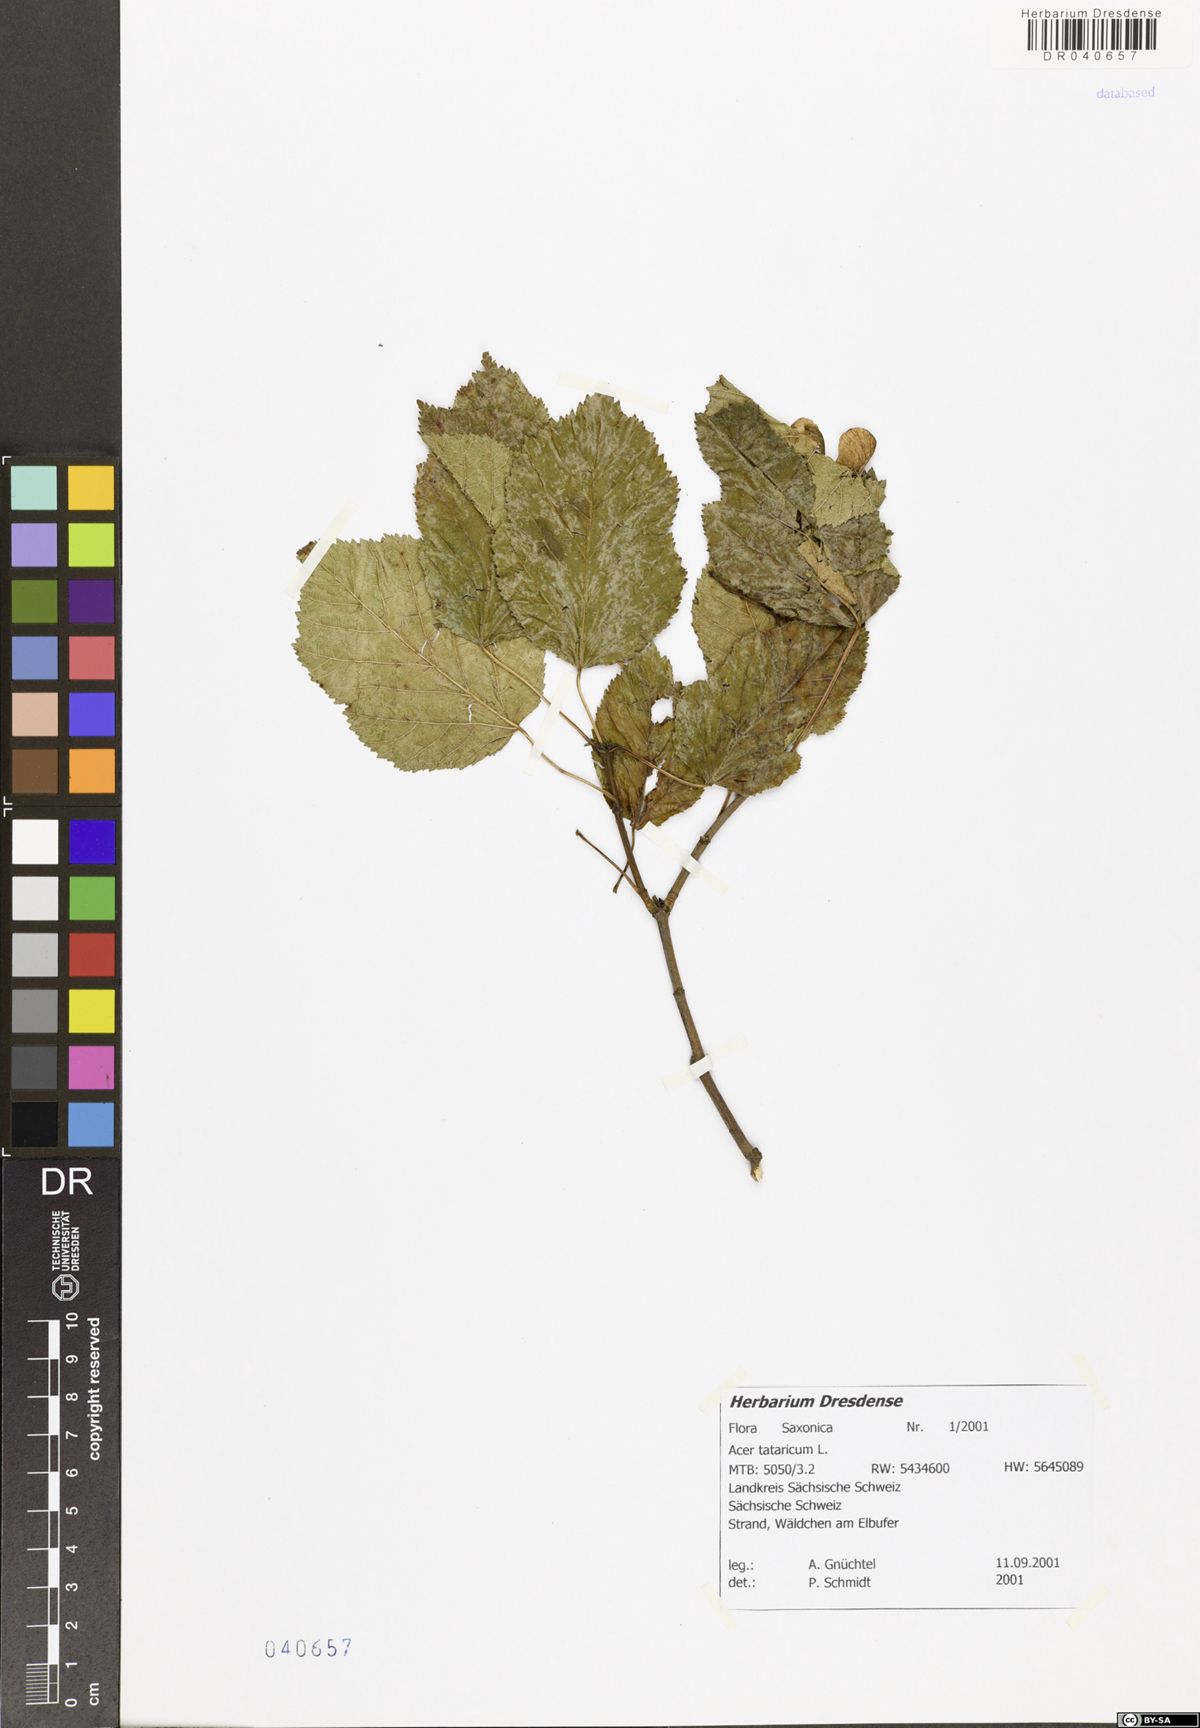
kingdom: Plantae
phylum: Tracheophyta
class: Magnoliopsida
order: Sapindales
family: Sapindaceae
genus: Acer
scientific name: Acer tataricum
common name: Tartar maple
